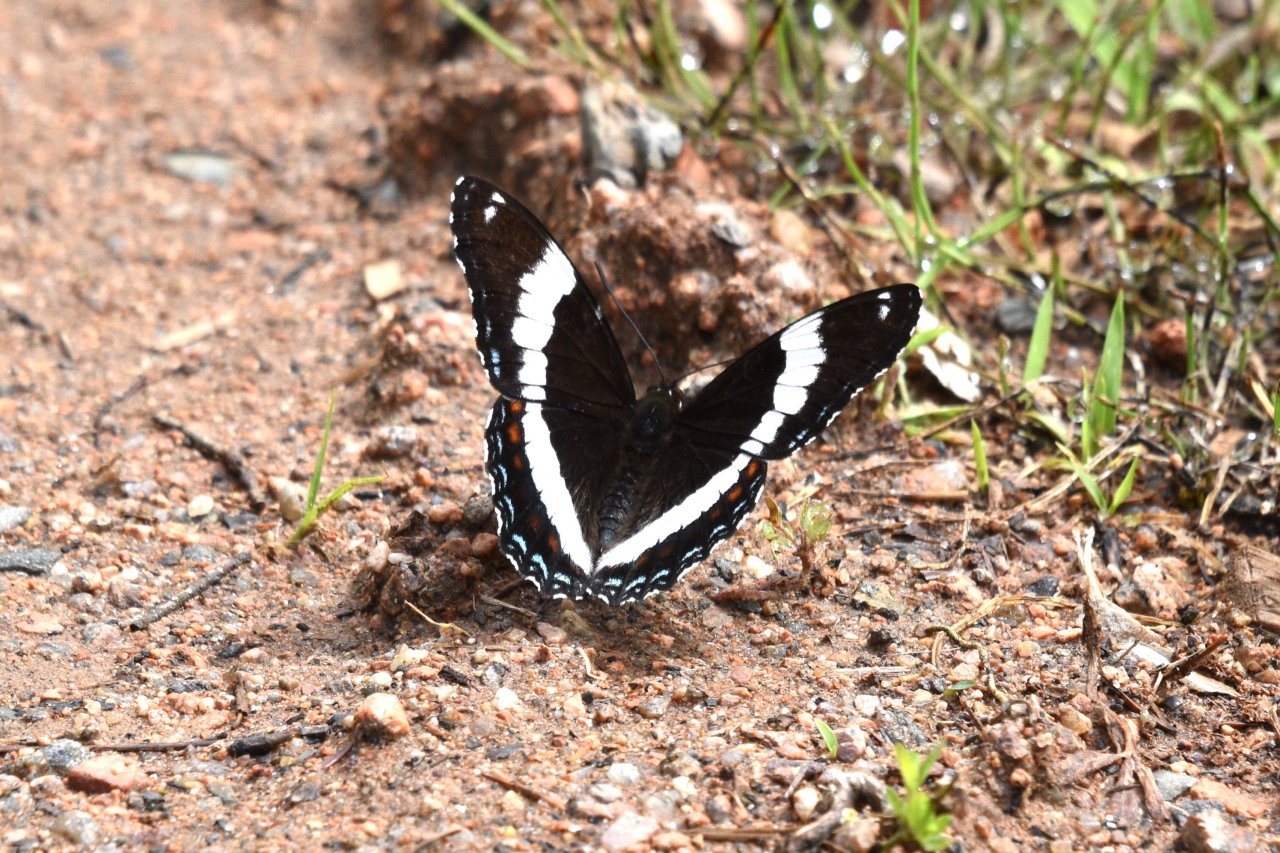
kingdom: Animalia
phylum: Arthropoda
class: Insecta
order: Lepidoptera
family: Nymphalidae
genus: Limenitis
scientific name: Limenitis arthemis
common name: Red-spotted Admiral
